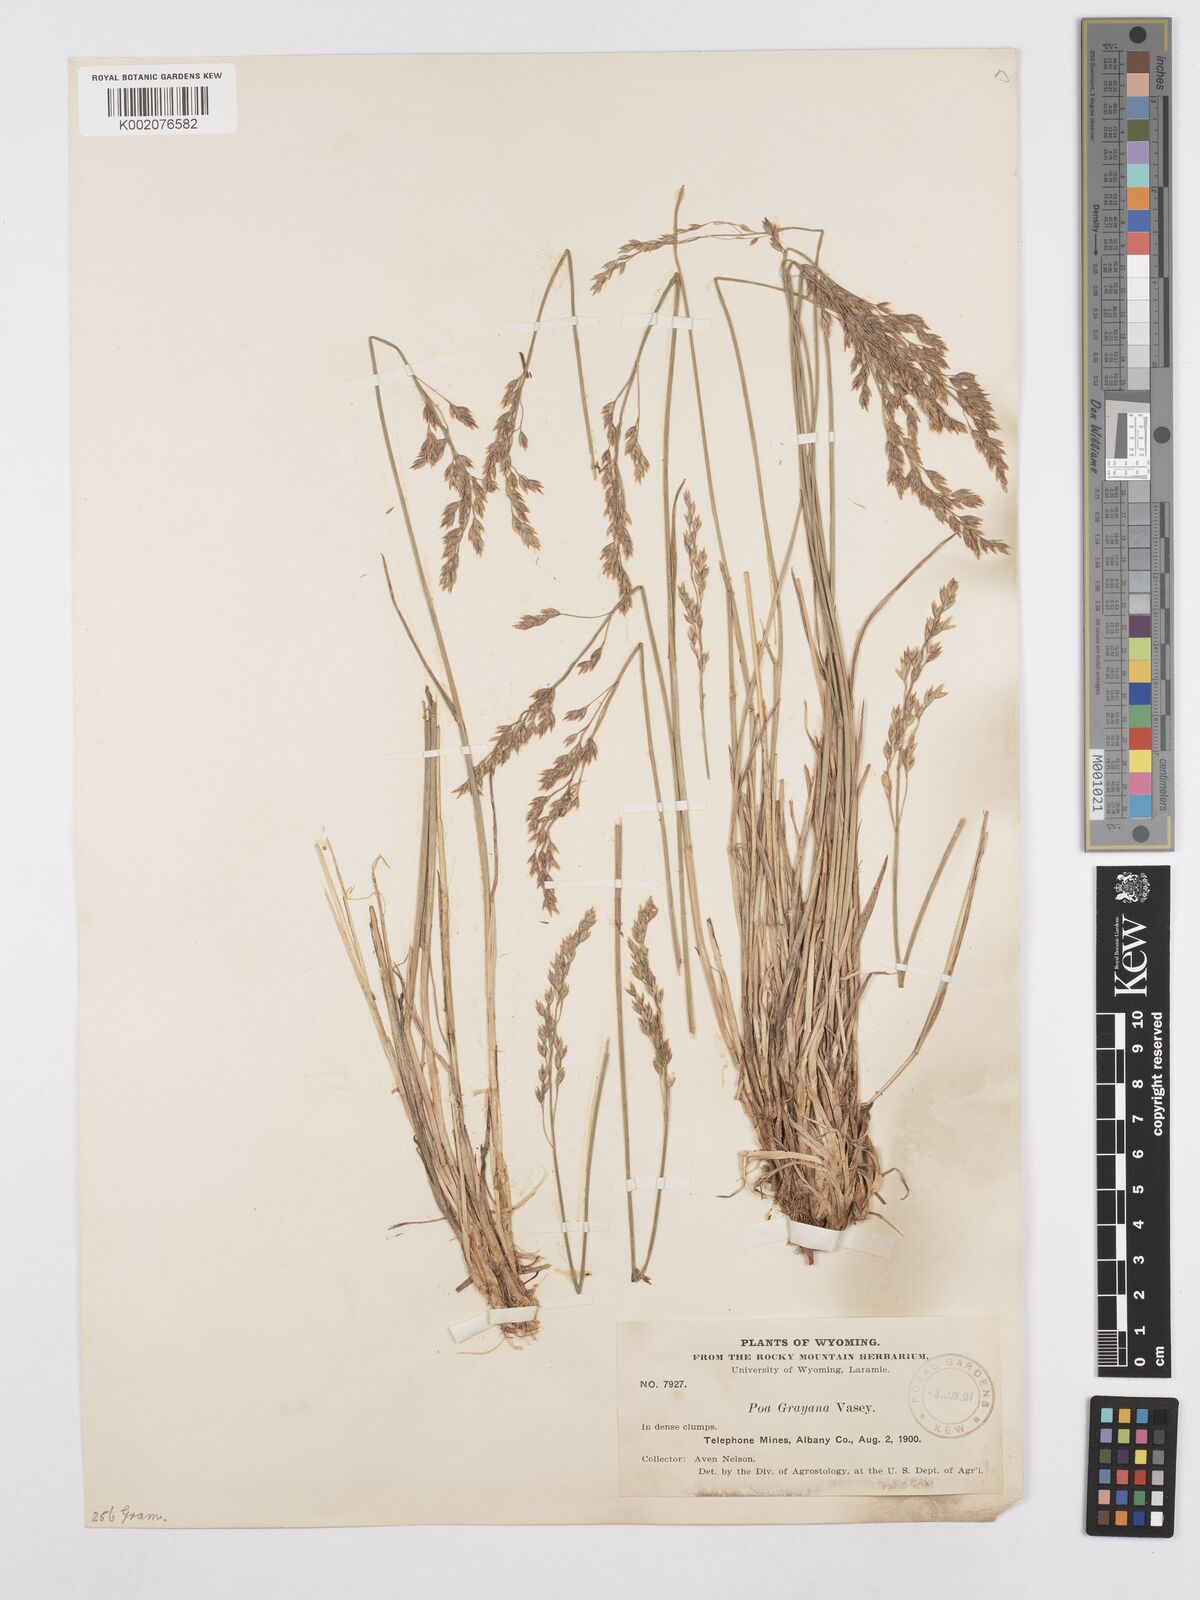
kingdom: Plantae
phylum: Tracheophyta
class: Liliopsida
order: Poales
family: Poaceae
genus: Poa
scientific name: Poa arctica
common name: Arctic bluegrass
